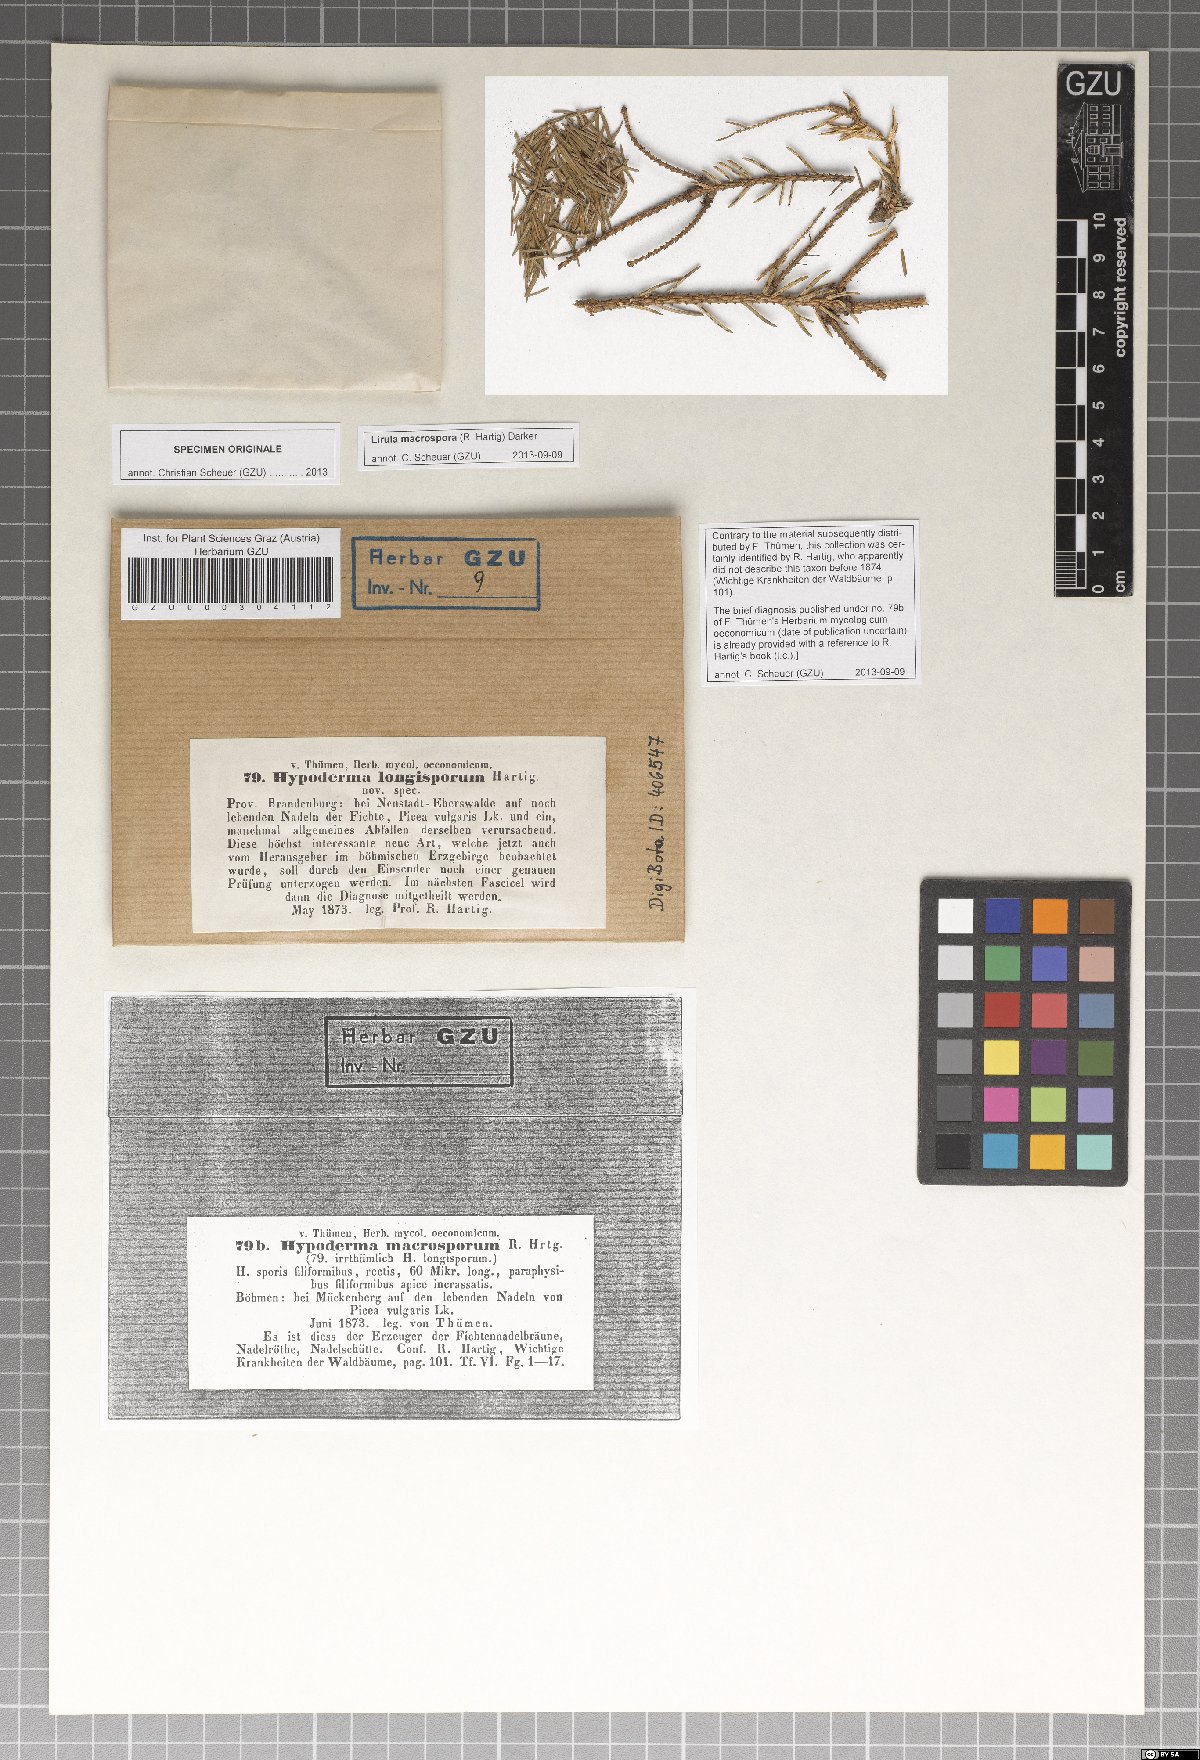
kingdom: Fungi
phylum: Ascomycota
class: Leotiomycetes
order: Rhytismatales
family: Rhytismataceae
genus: Lirula
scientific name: Lirula macrospora
